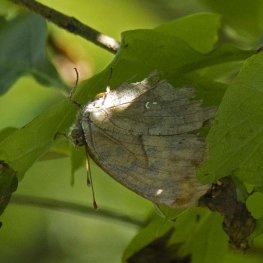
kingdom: Animalia
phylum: Arthropoda
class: Insecta
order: Lepidoptera
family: Nymphalidae
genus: Polygonia
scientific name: Polygonia interrogationis
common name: Question Mark
